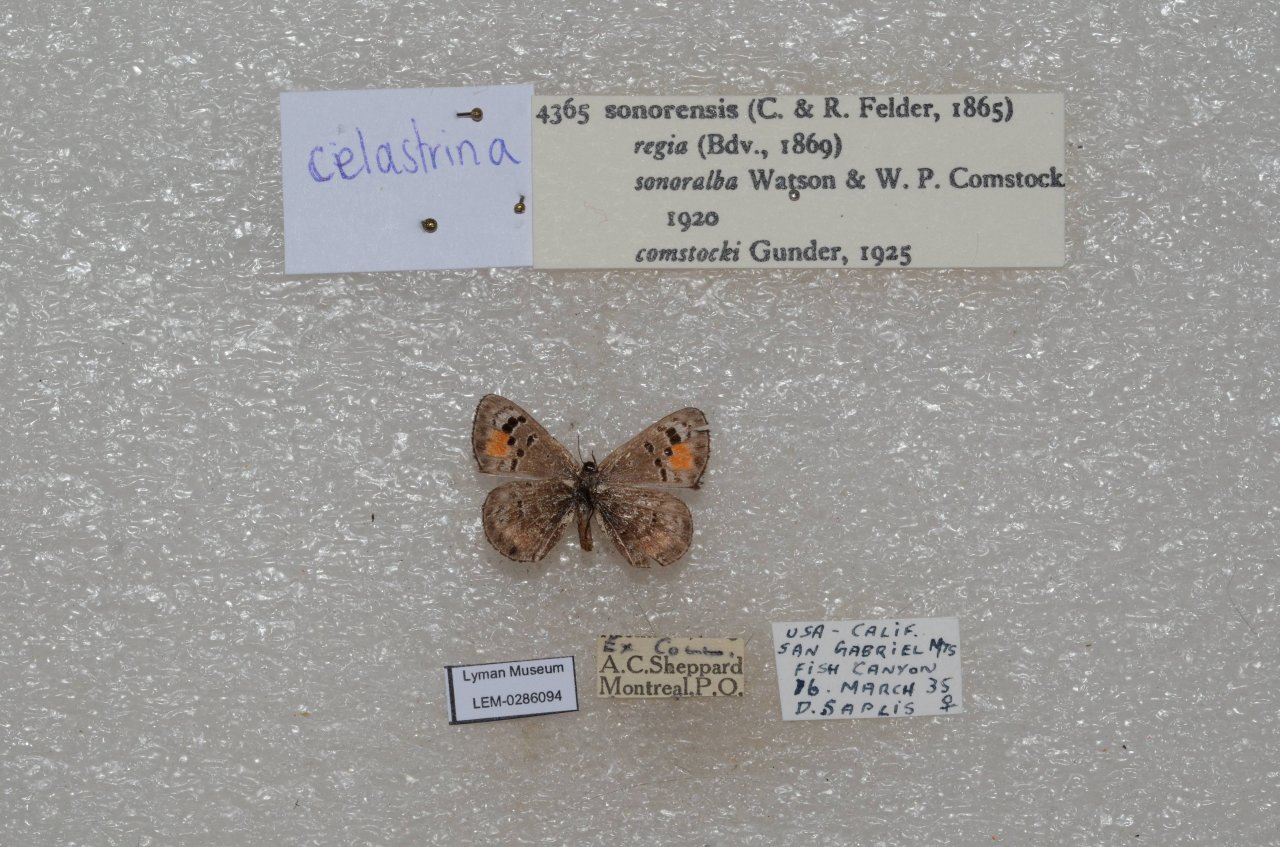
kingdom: Animalia
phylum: Arthropoda
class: Insecta
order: Lepidoptera
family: Lycaenidae
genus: Philotes
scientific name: Philotes sonorensis
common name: Sonoran Blue
